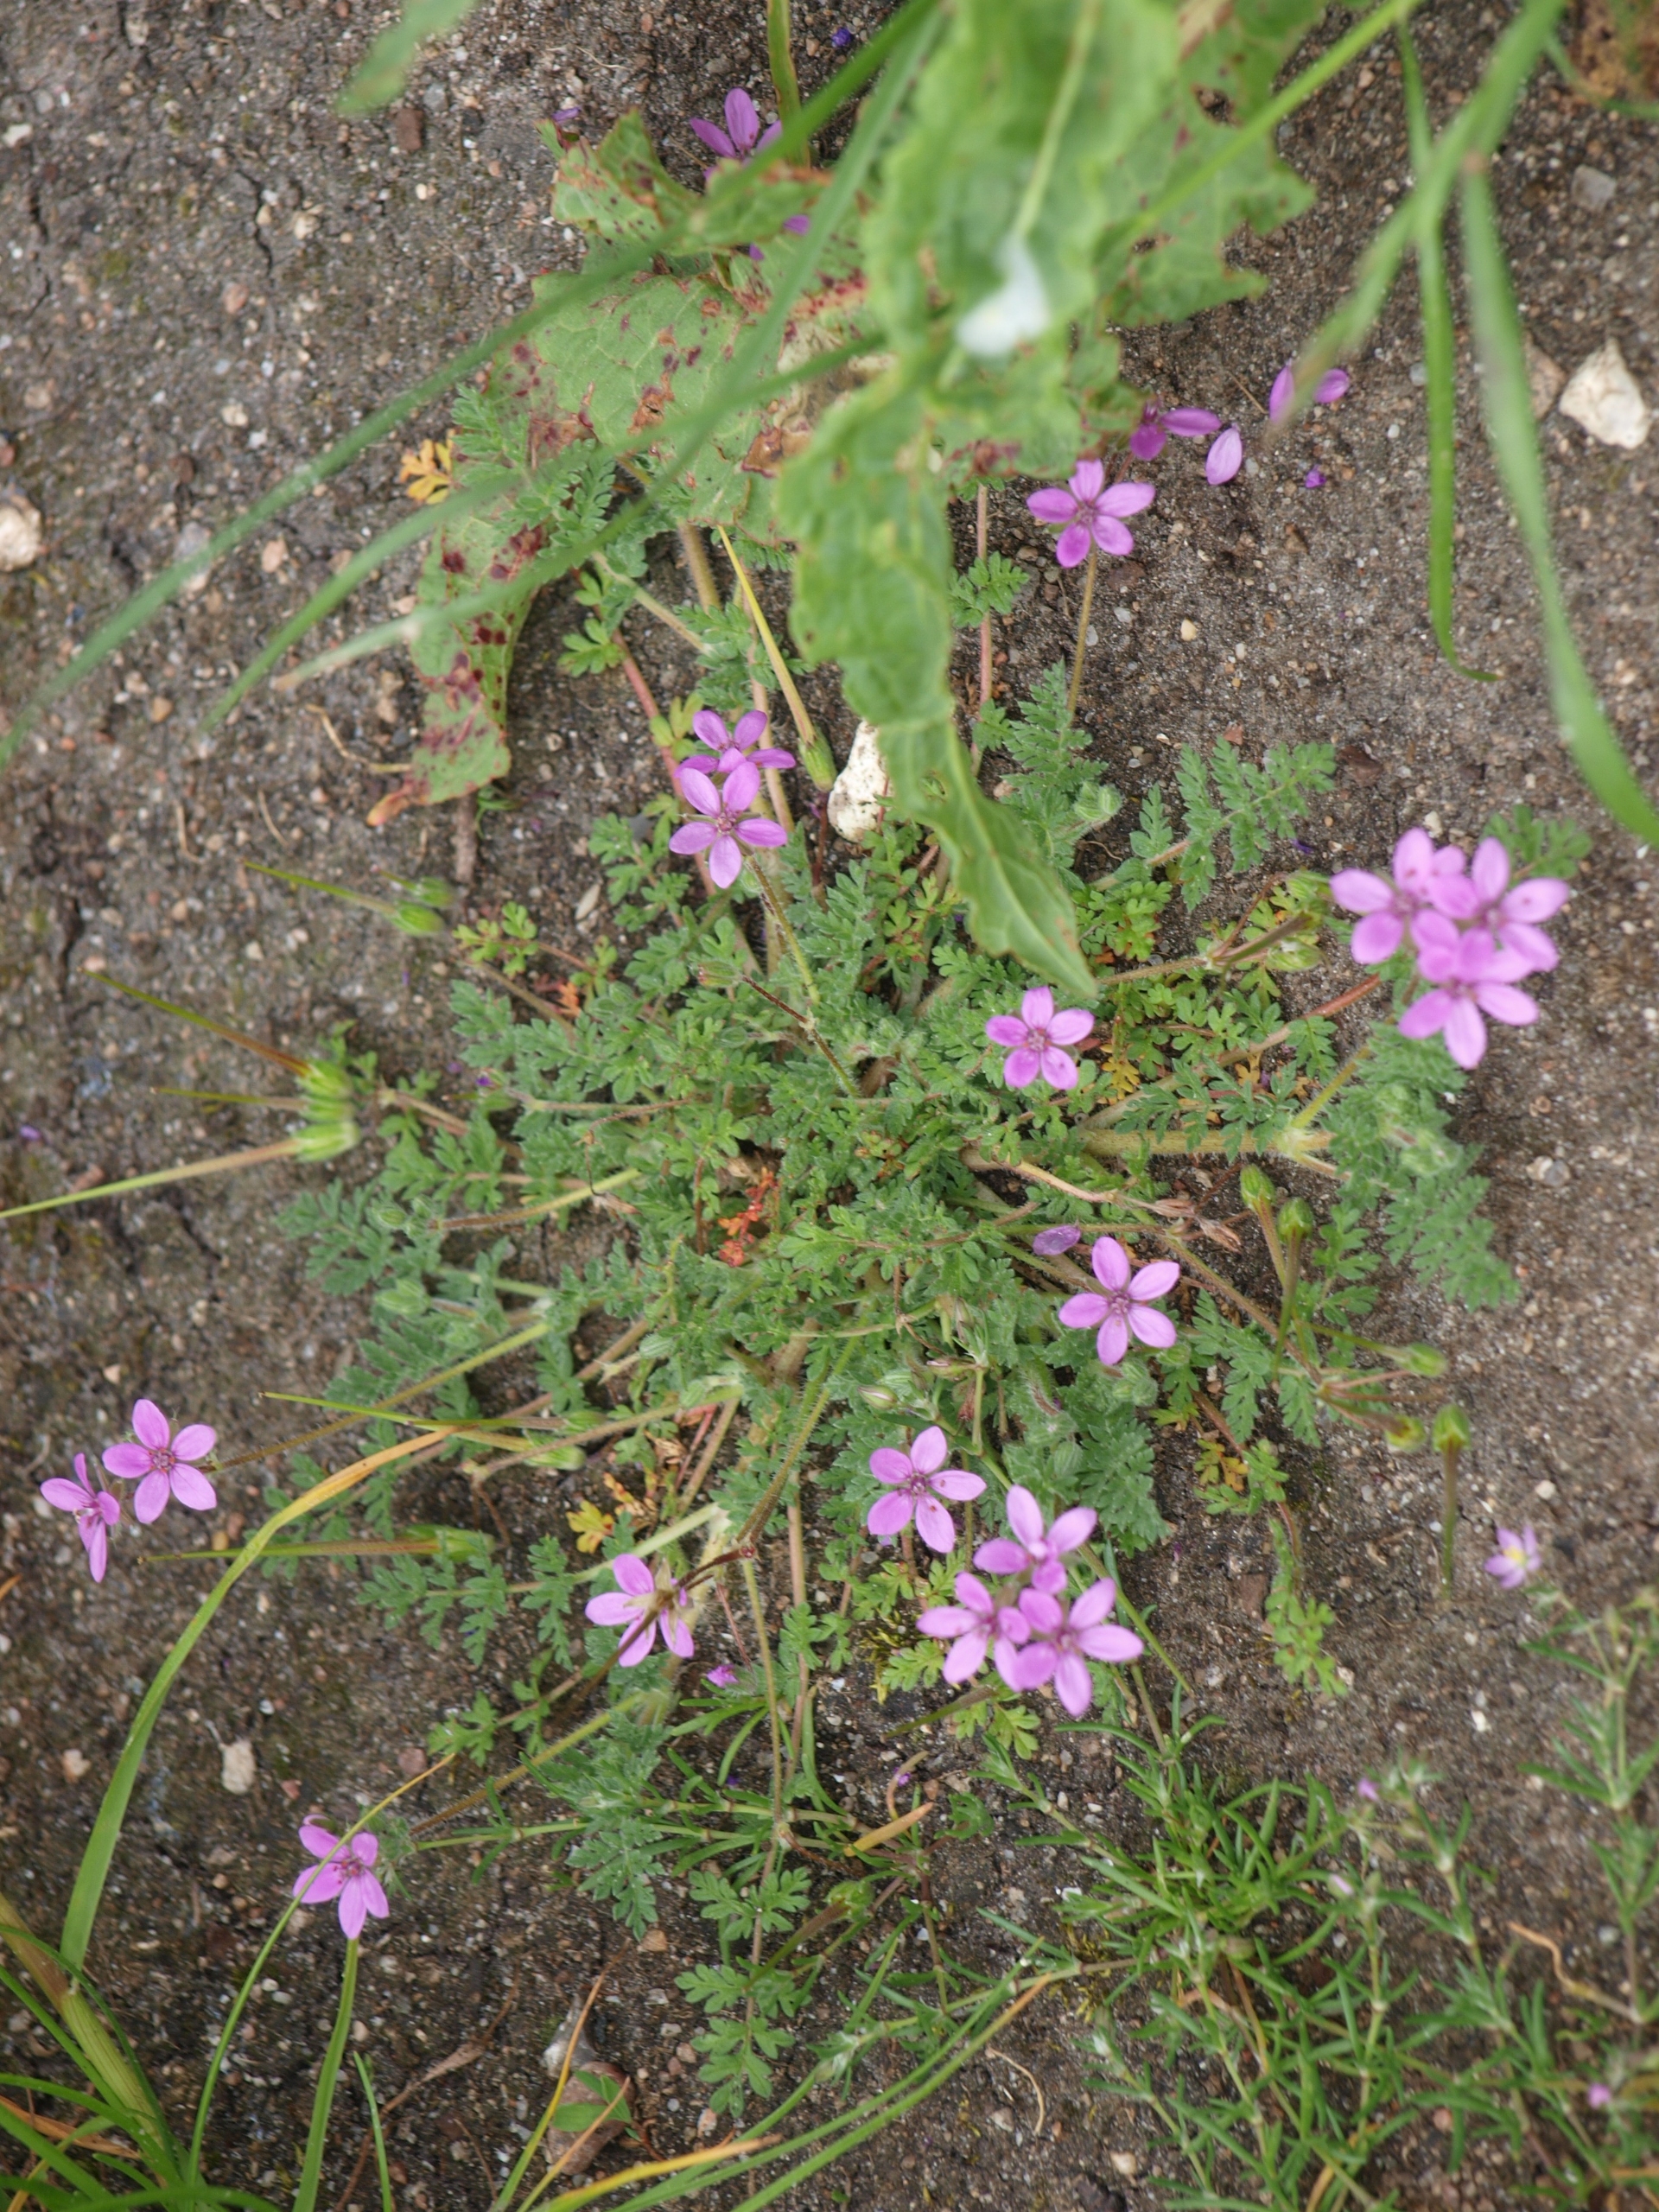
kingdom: Plantae
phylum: Tracheophyta
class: Magnoliopsida
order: Geraniales
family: Geraniaceae
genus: Erodium
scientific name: Erodium cicutarium
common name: Hejrenæb
